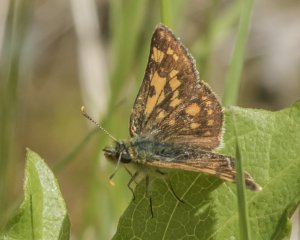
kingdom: Animalia
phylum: Arthropoda
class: Insecta
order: Lepidoptera
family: Hesperiidae
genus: Carterocephalus
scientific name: Carterocephalus palaemon
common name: Chequered Skipper
